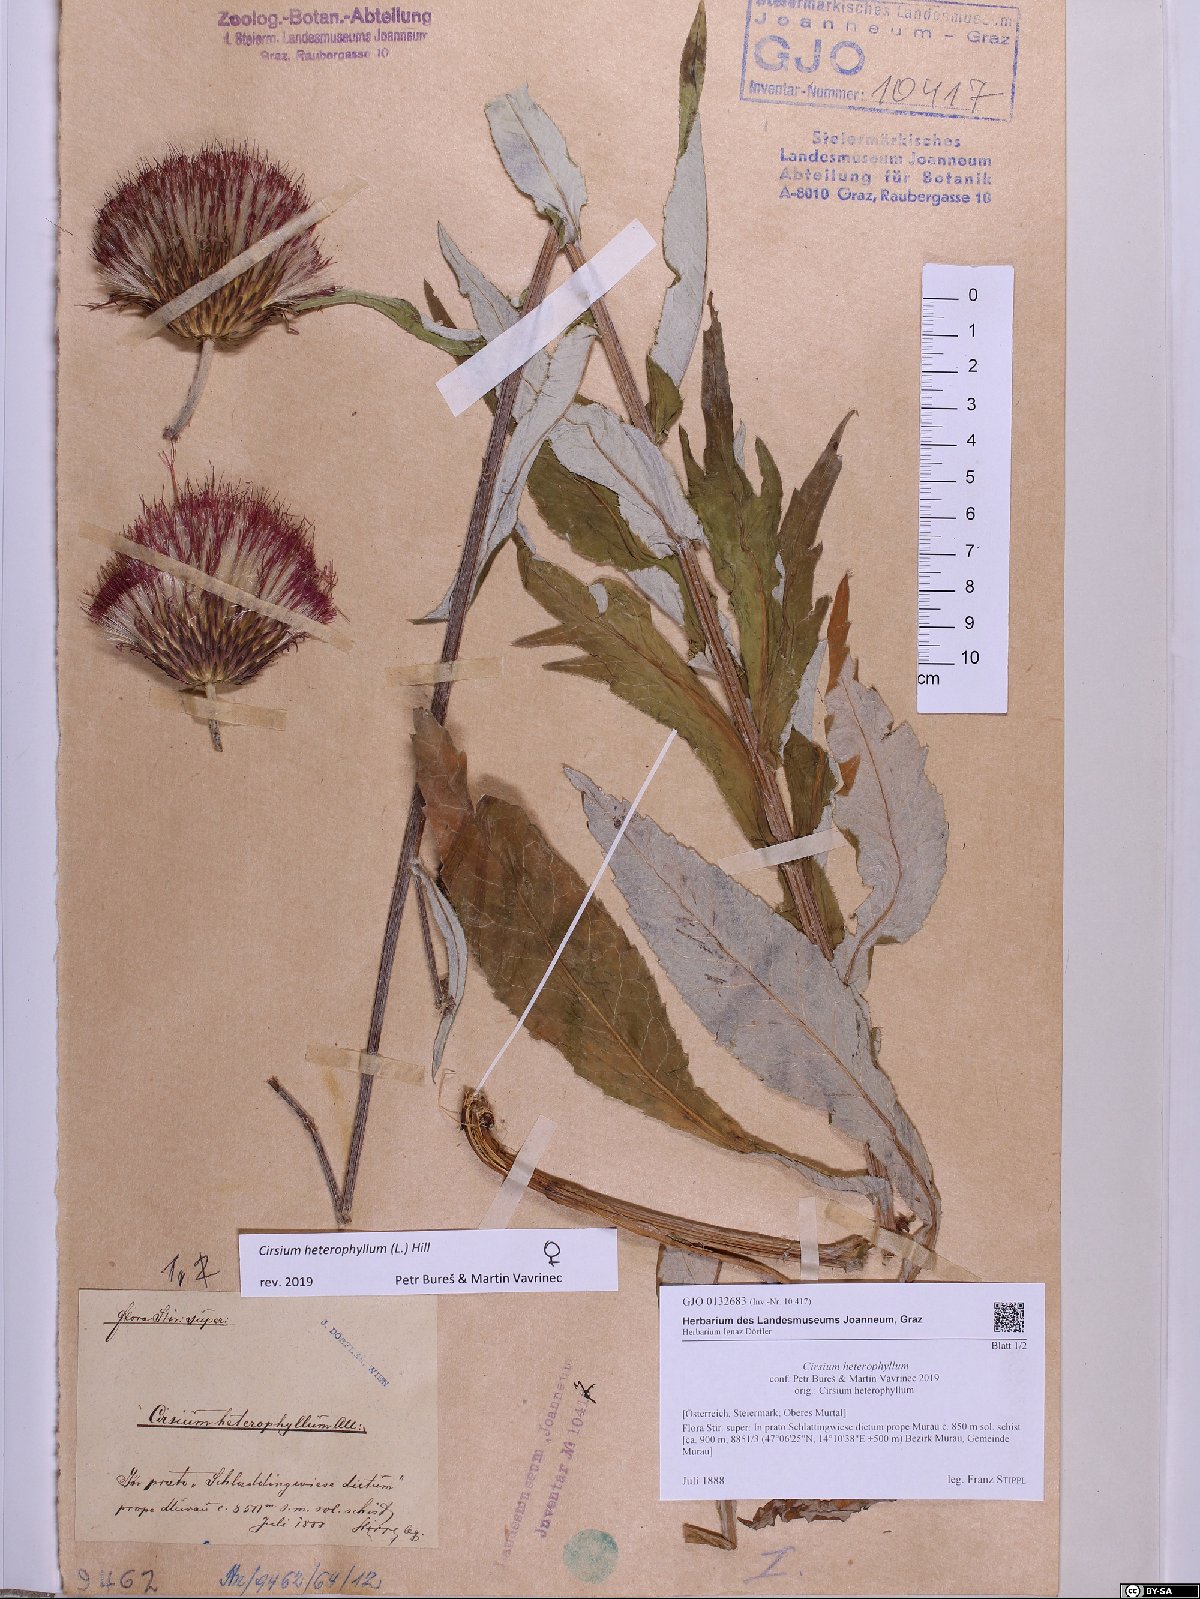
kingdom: Plantae
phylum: Tracheophyta
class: Magnoliopsida
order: Asterales
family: Asteraceae
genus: Cirsium
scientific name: Cirsium heterophyllum
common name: Melancholy thistle
